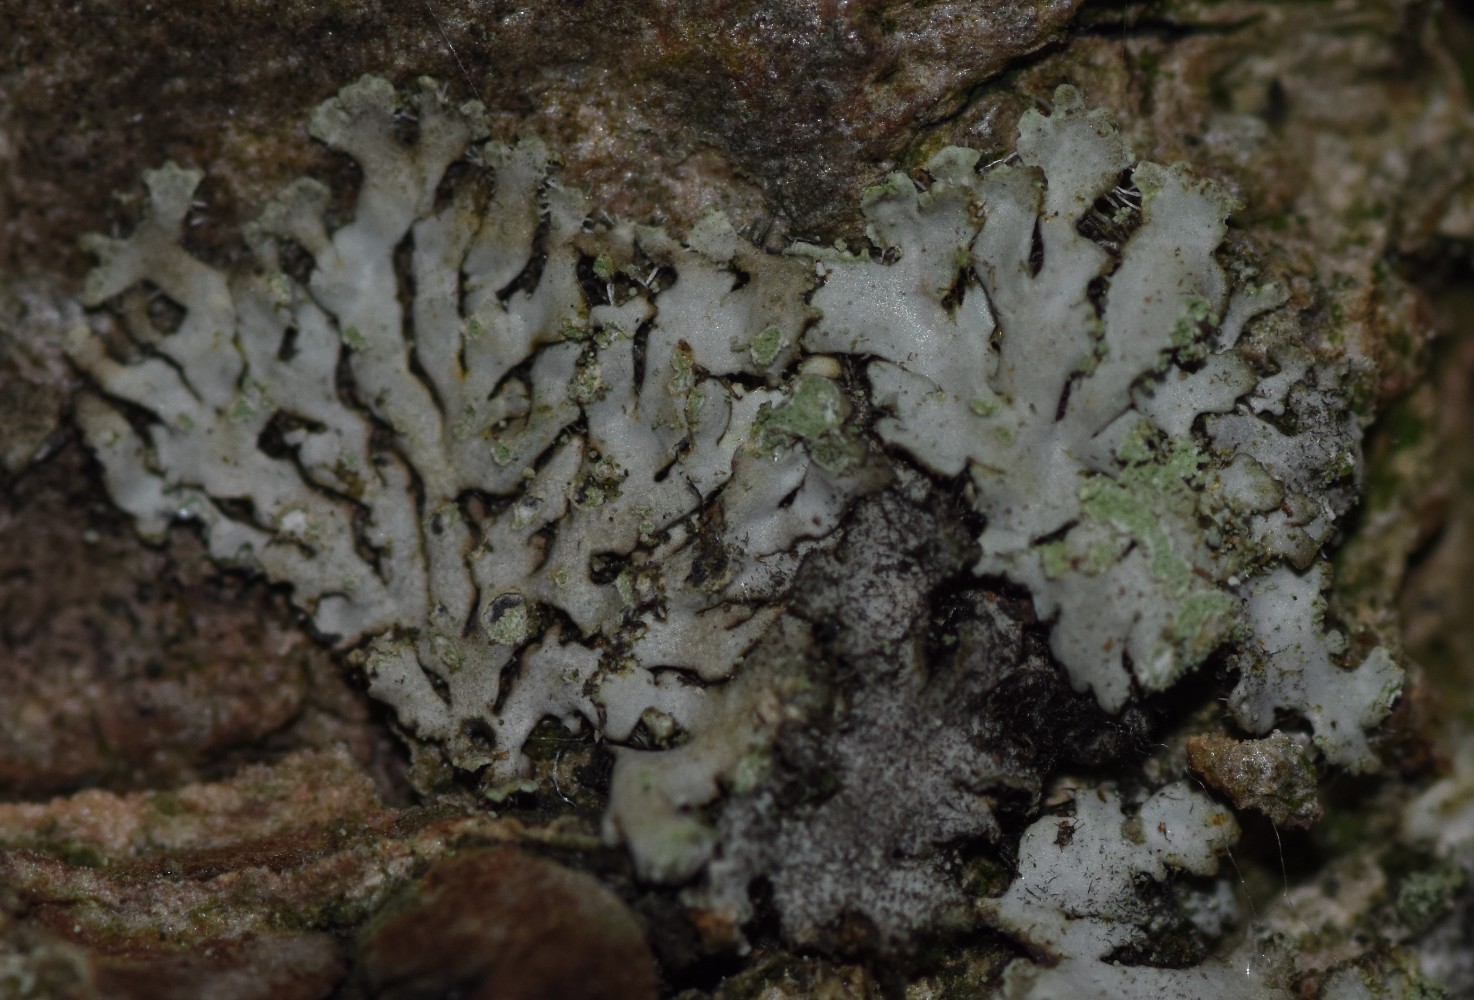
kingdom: Fungi
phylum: Ascomycota
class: Lecanoromycetes
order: Caliciales
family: Physciaceae
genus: Phaeophyscia
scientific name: Phaeophyscia orbicularis
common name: grågrøn rosetlav
